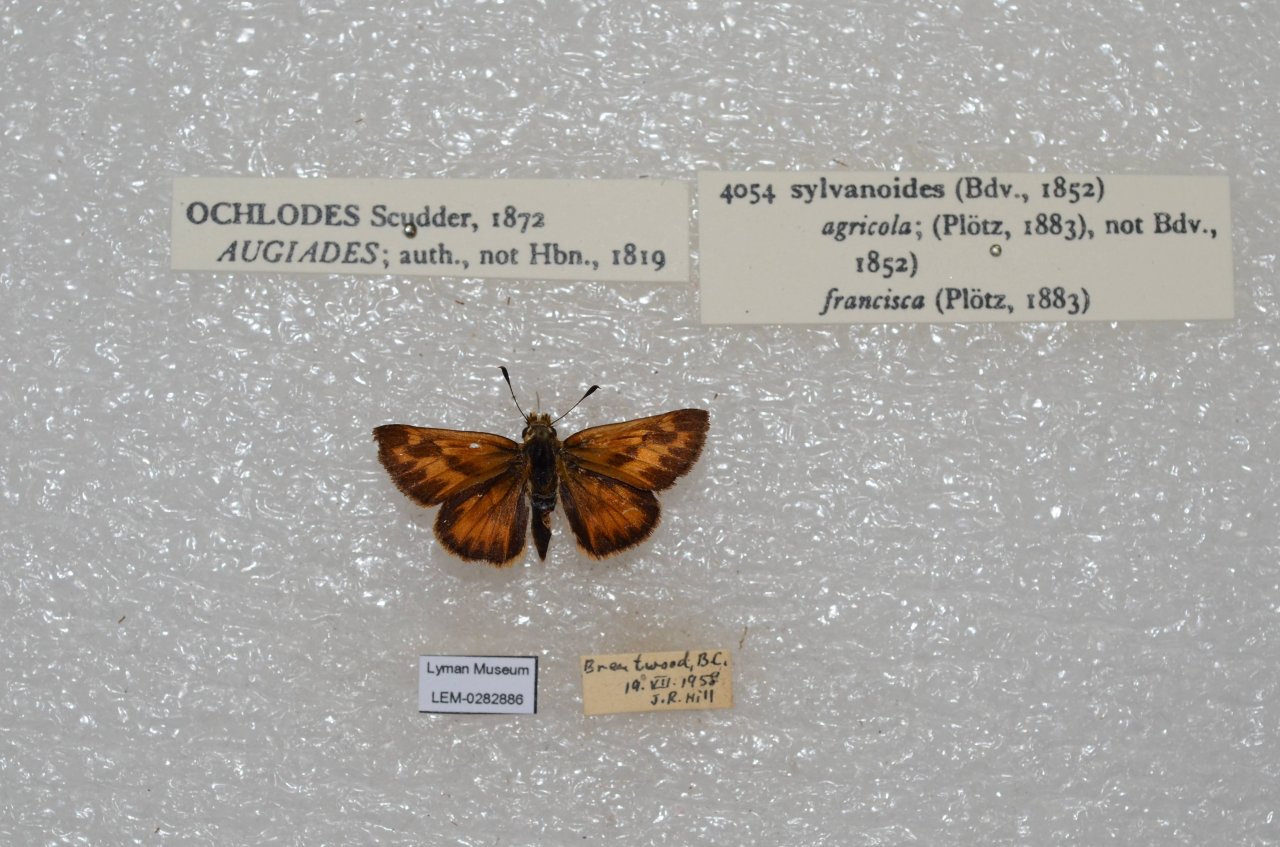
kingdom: Animalia
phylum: Arthropoda
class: Insecta
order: Lepidoptera
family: Hesperiidae
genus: Ochlodes
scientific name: Ochlodes sylvanoides
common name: Woodland Skipper
